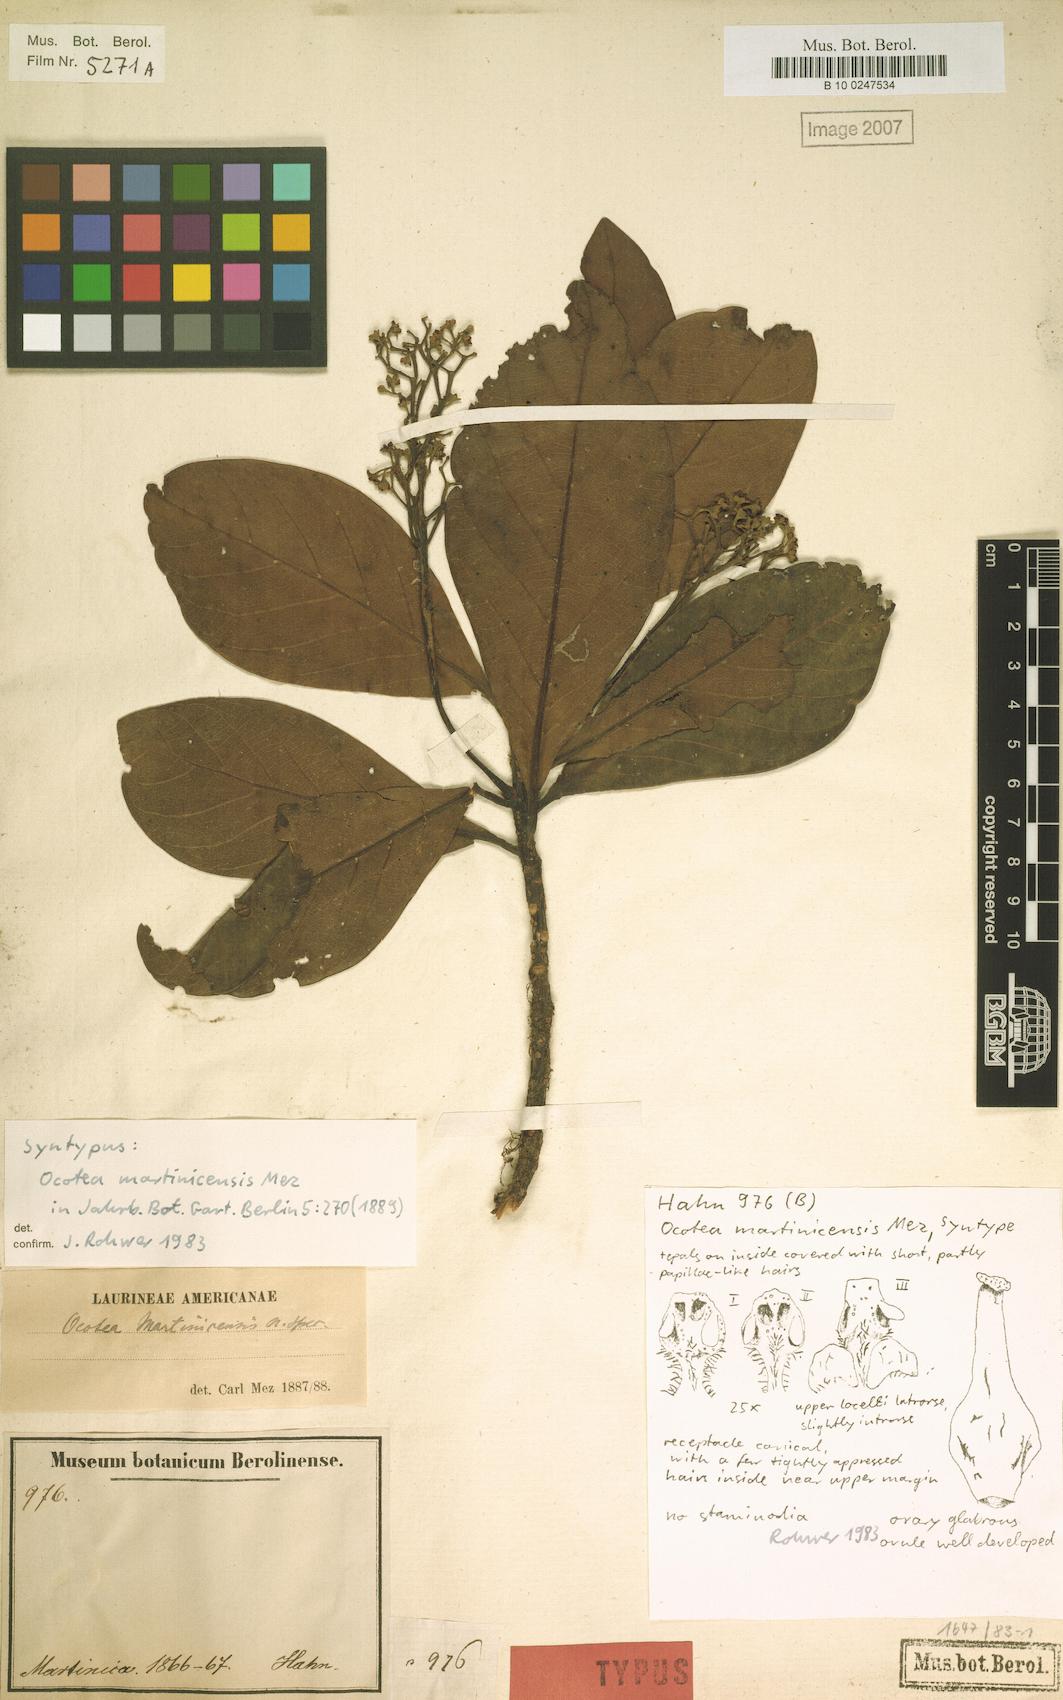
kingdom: Plantae
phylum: Tracheophyta
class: Magnoliopsida
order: Laurales
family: Lauraceae
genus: Ocotea
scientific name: Ocotea martinicensis
